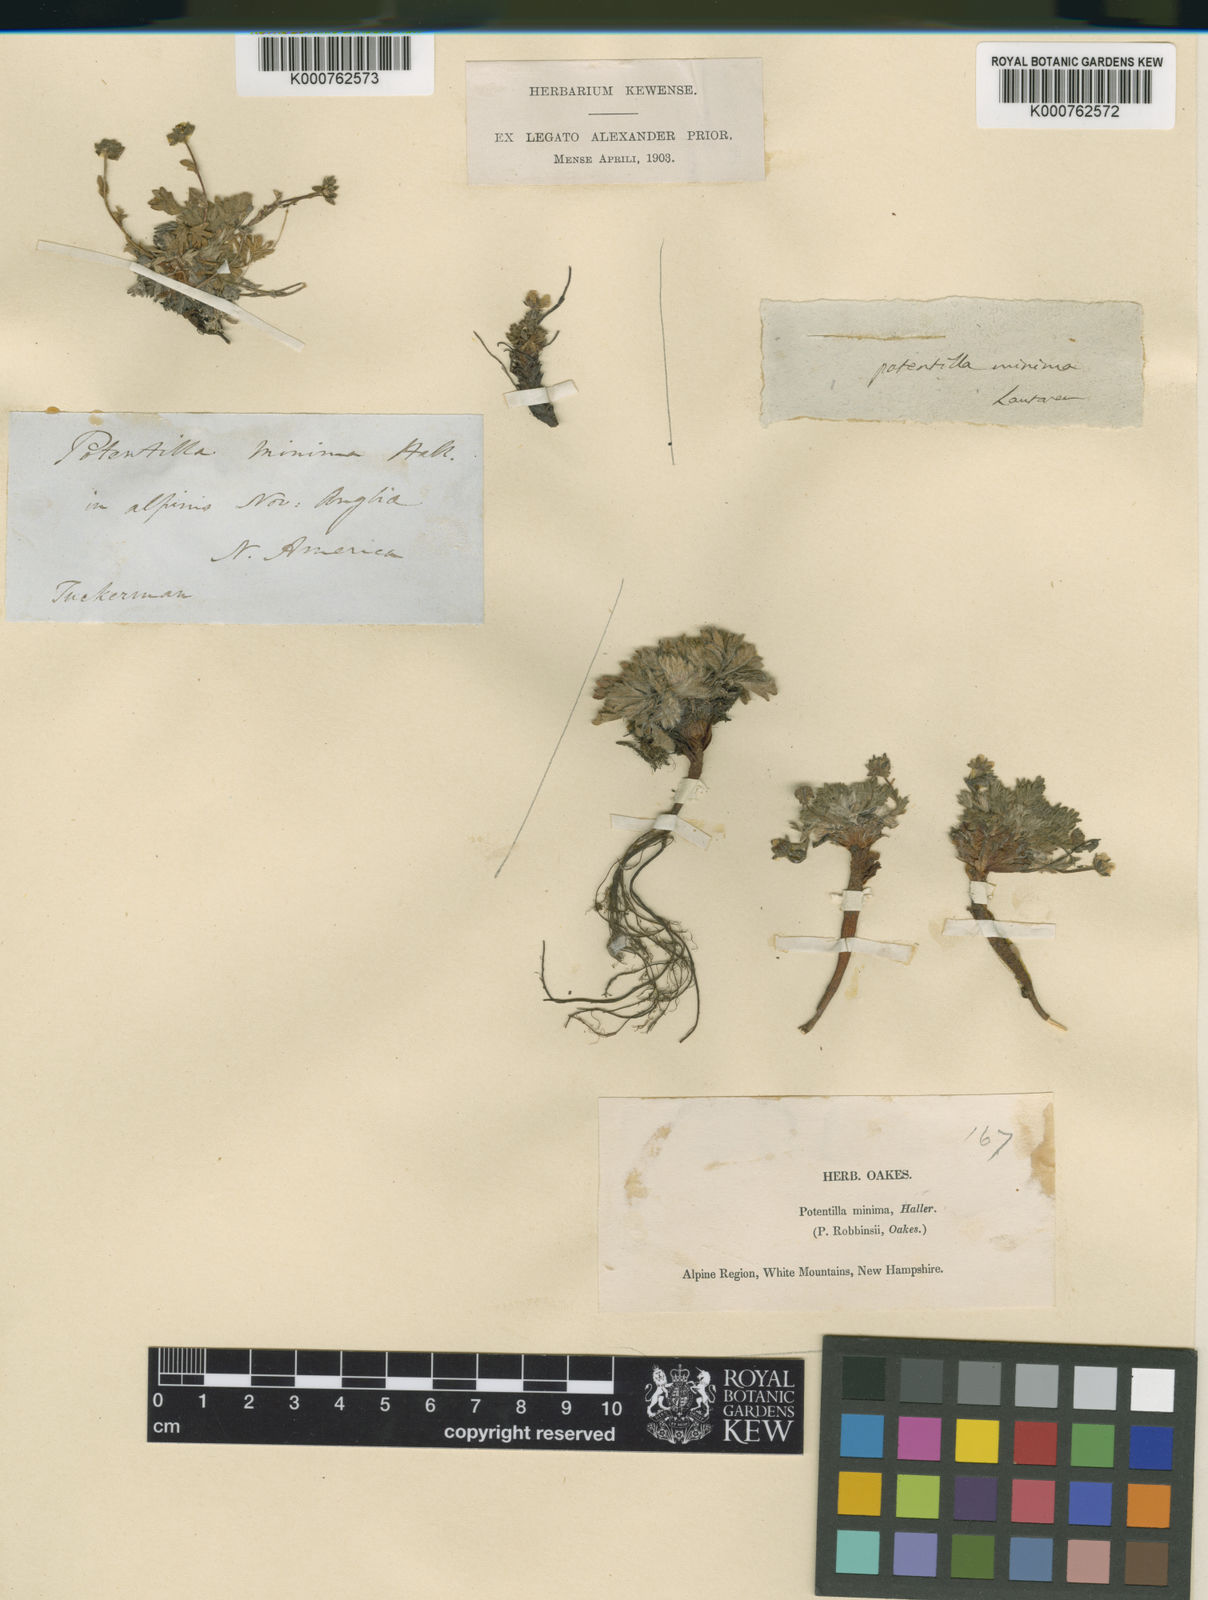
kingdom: Plantae
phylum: Tracheophyta
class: Magnoliopsida
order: Rosales
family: Rosaceae
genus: Potentilla
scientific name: Potentilla
